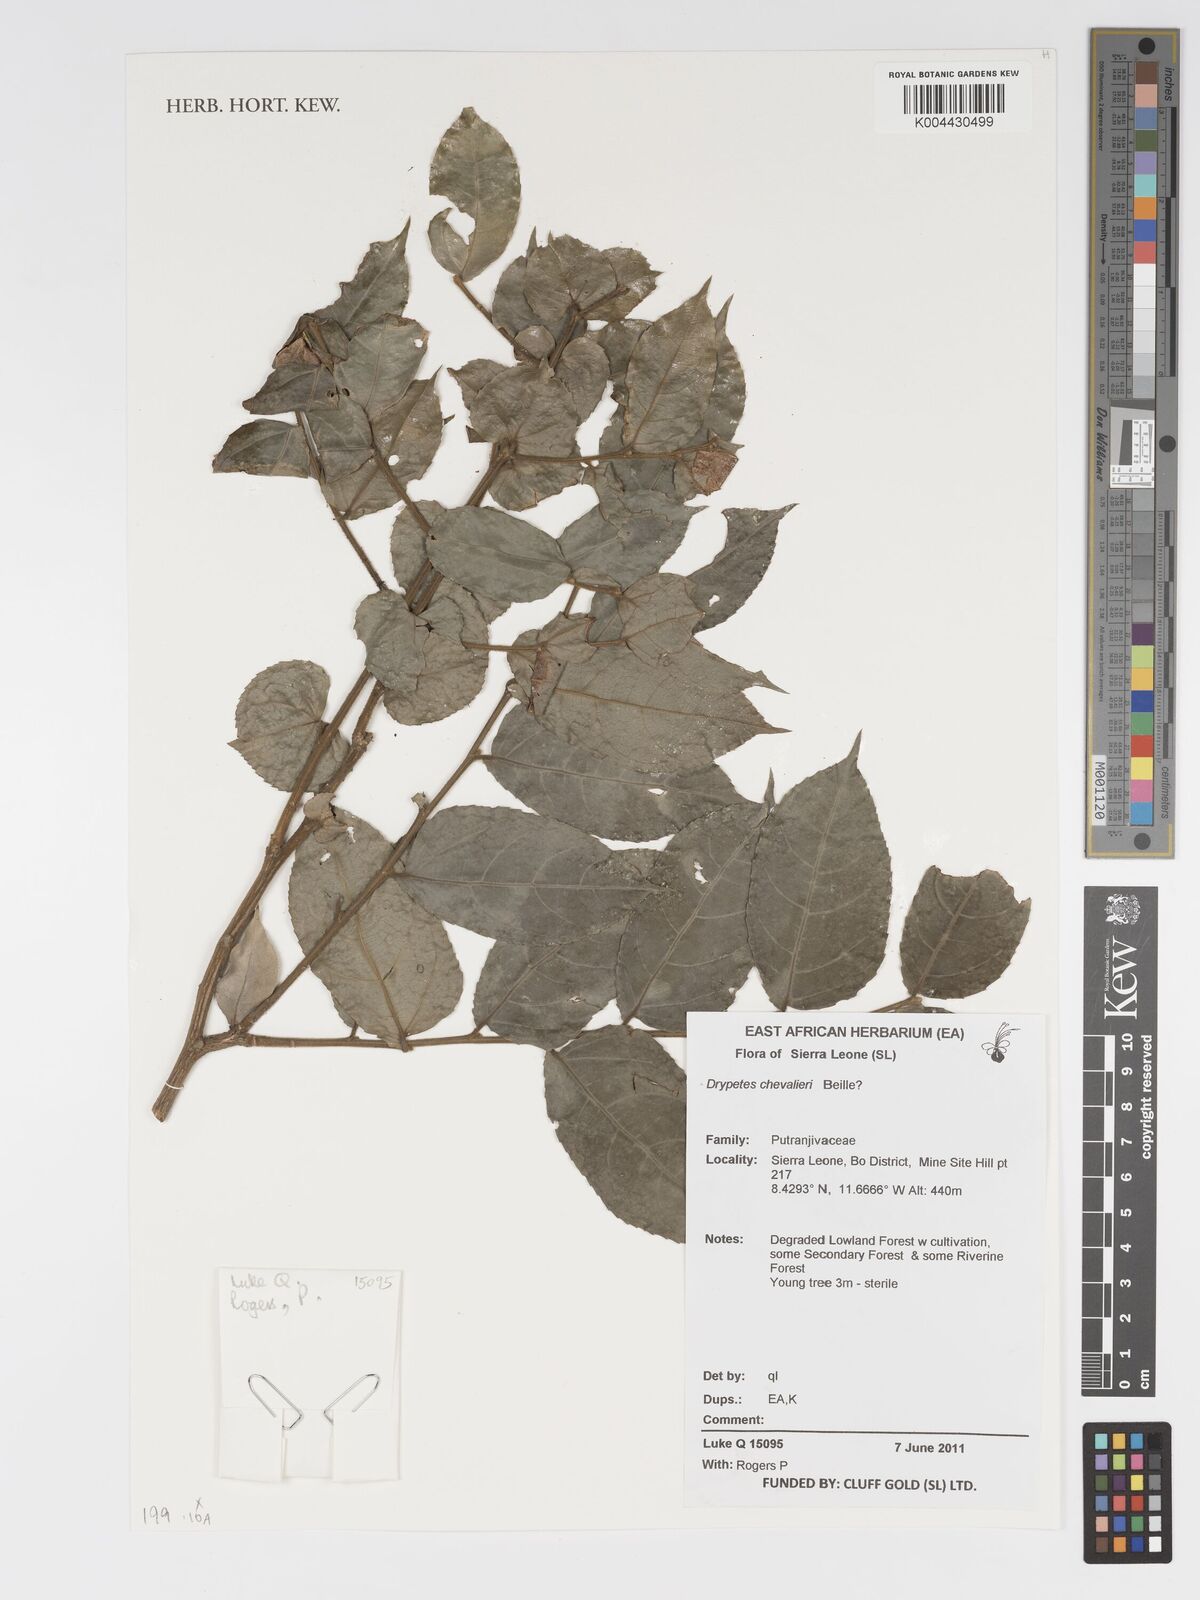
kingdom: Plantae
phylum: Tracheophyta
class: Magnoliopsida
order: Malpighiales
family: Putranjivaceae
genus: Drypetes
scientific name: Drypetes chevalieri
